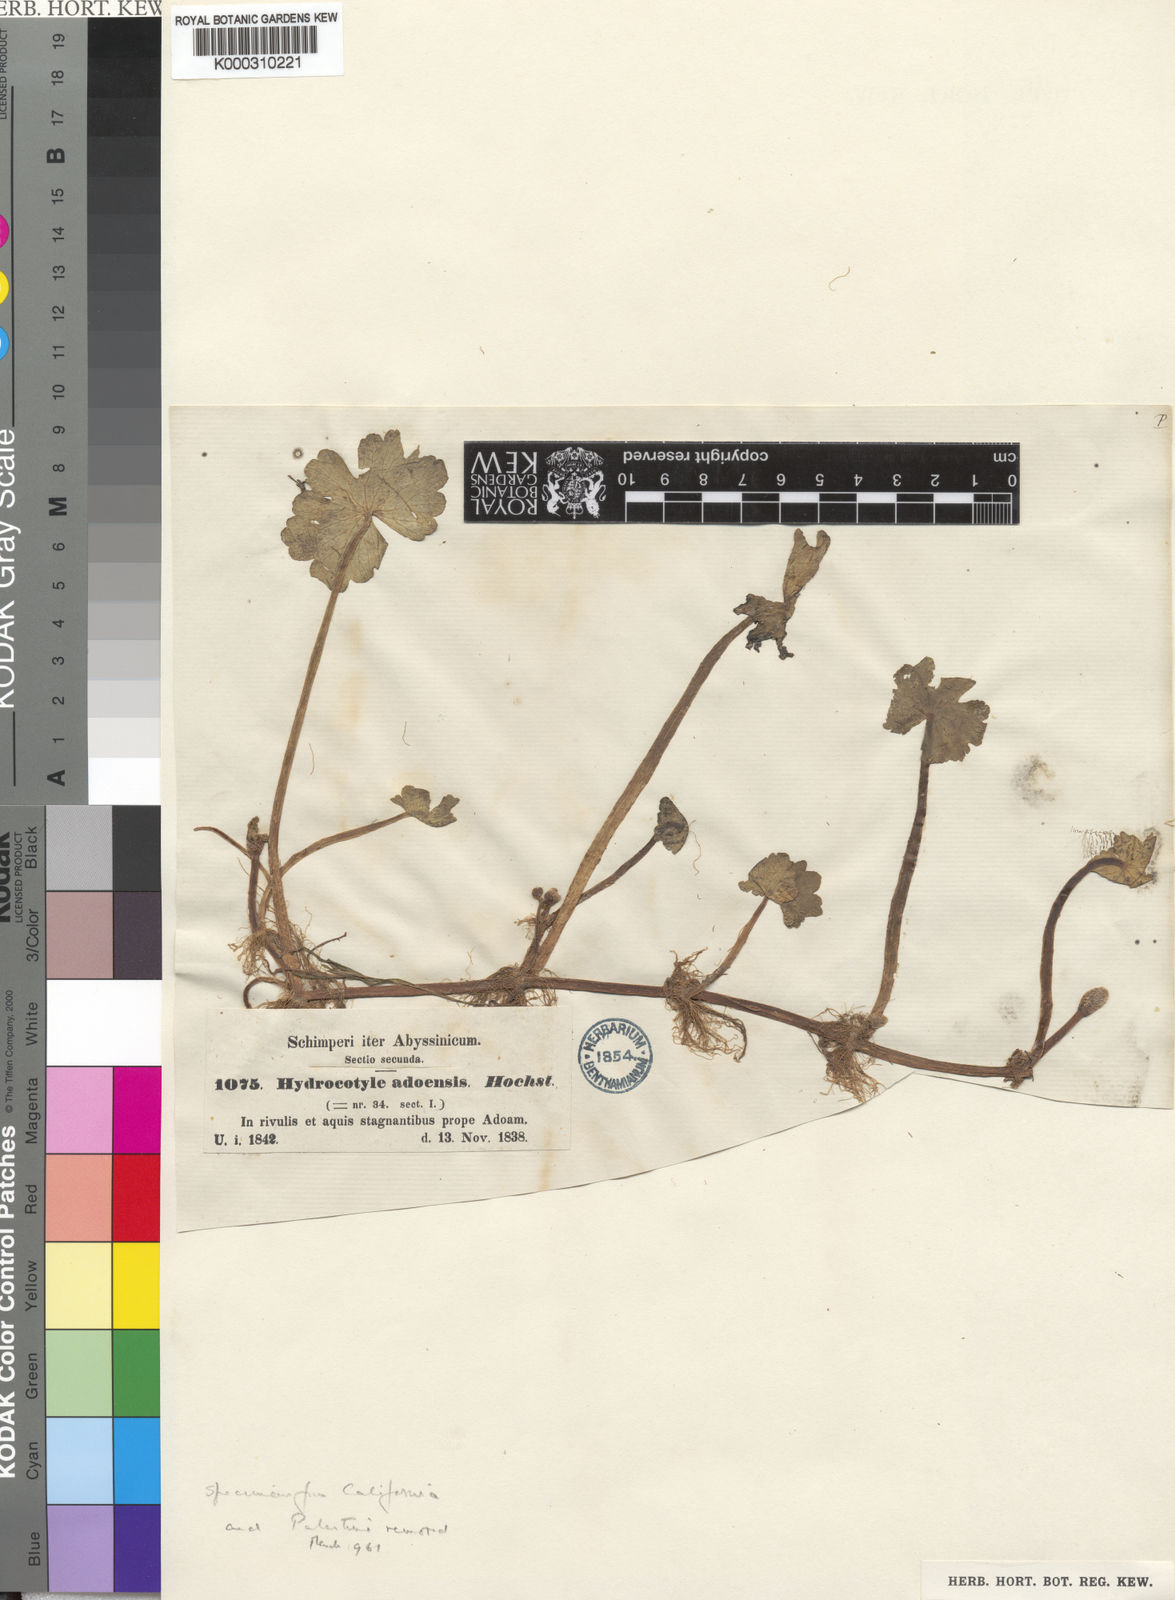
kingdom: Plantae
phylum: Tracheophyta
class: Magnoliopsida
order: Apiales
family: Araliaceae
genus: Hydrocotyle
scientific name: Hydrocotyle ranunculoides
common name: Floating pennywort
